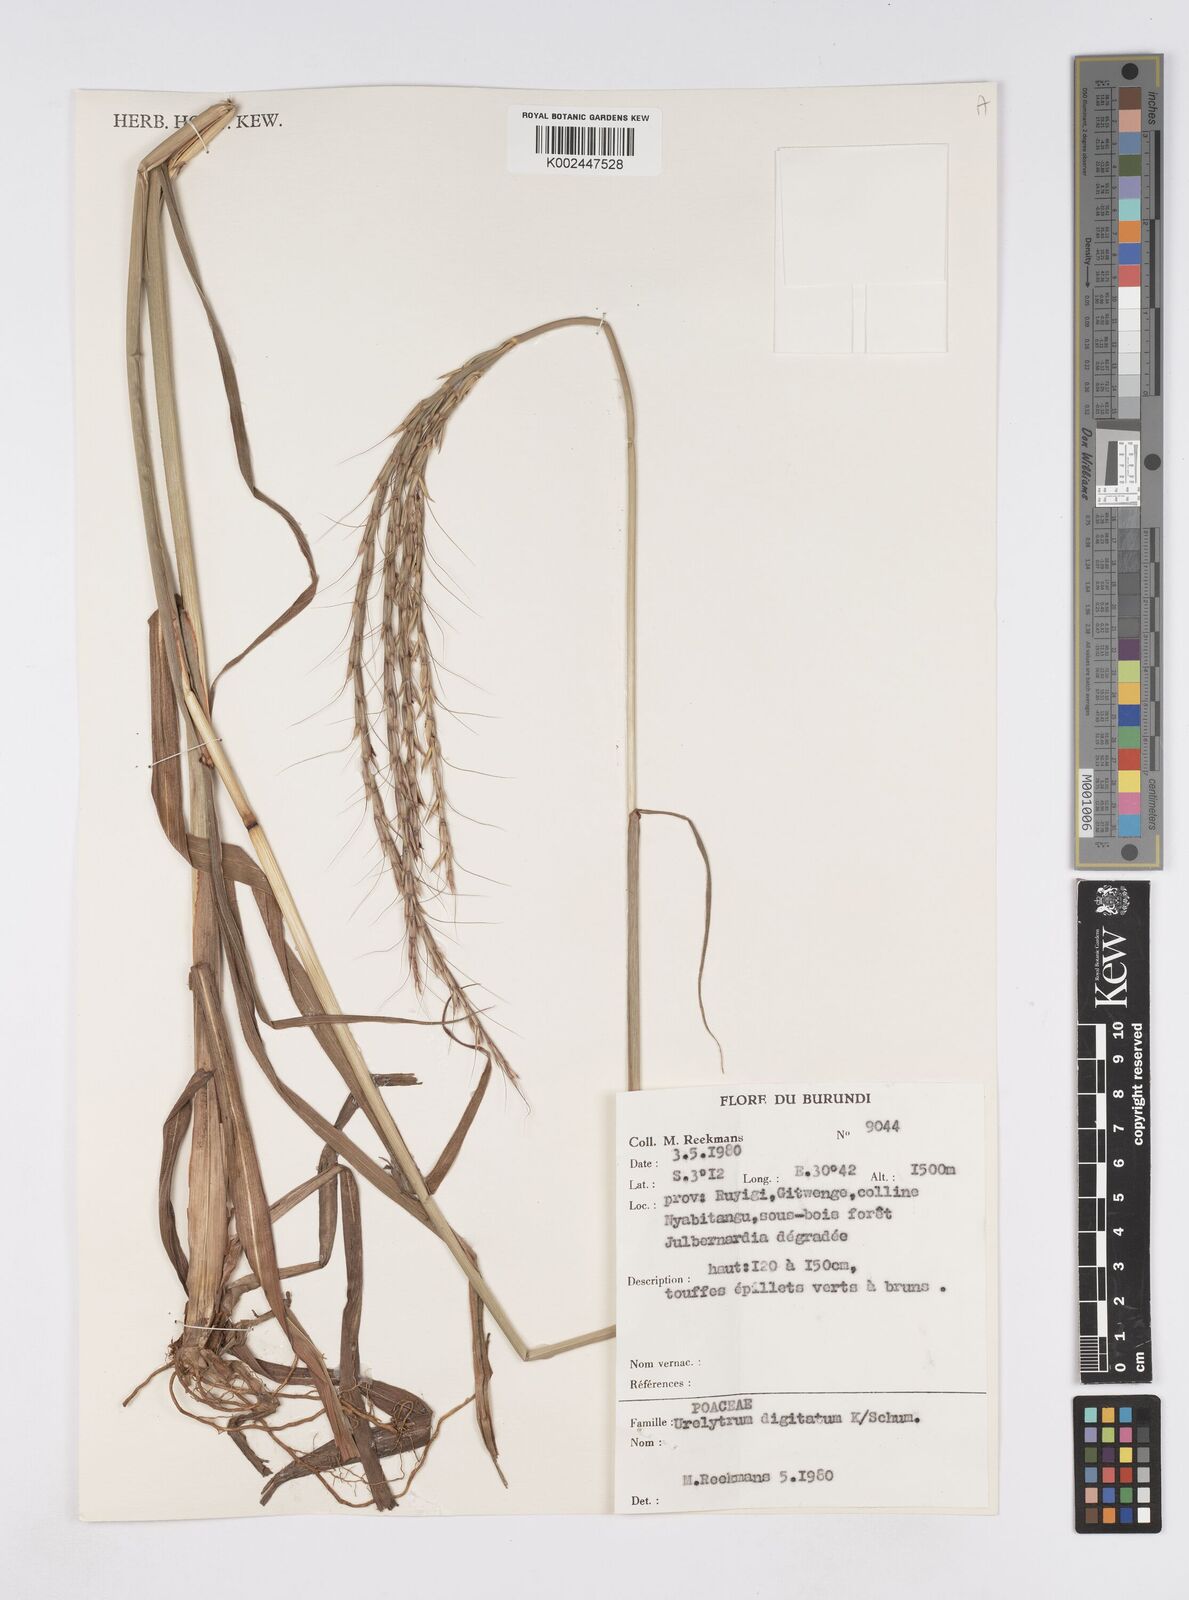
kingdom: Plantae
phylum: Tracheophyta
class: Liliopsida
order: Poales
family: Poaceae
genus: Urelytrum
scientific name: Urelytrum digitatum
